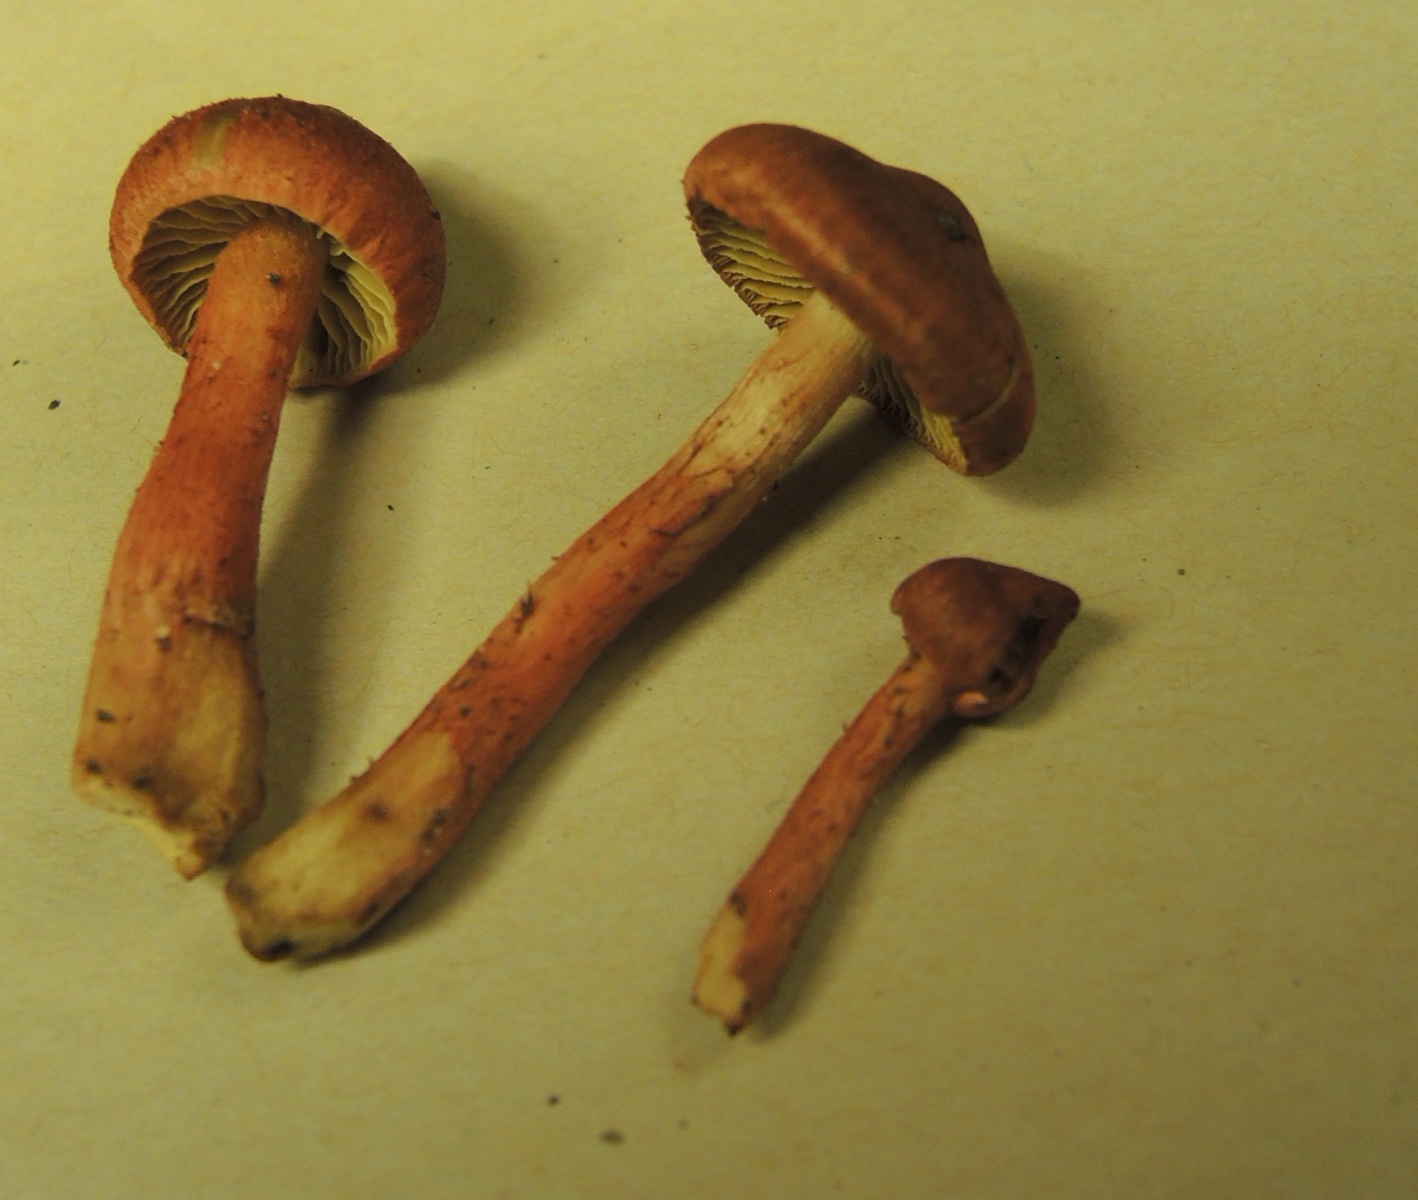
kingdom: Fungi
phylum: Basidiomycota
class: Agaricomycetes
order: Agaricales
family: Cortinariaceae
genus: Cortinarius
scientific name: Cortinarius uliginosus
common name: mose-slørhat
